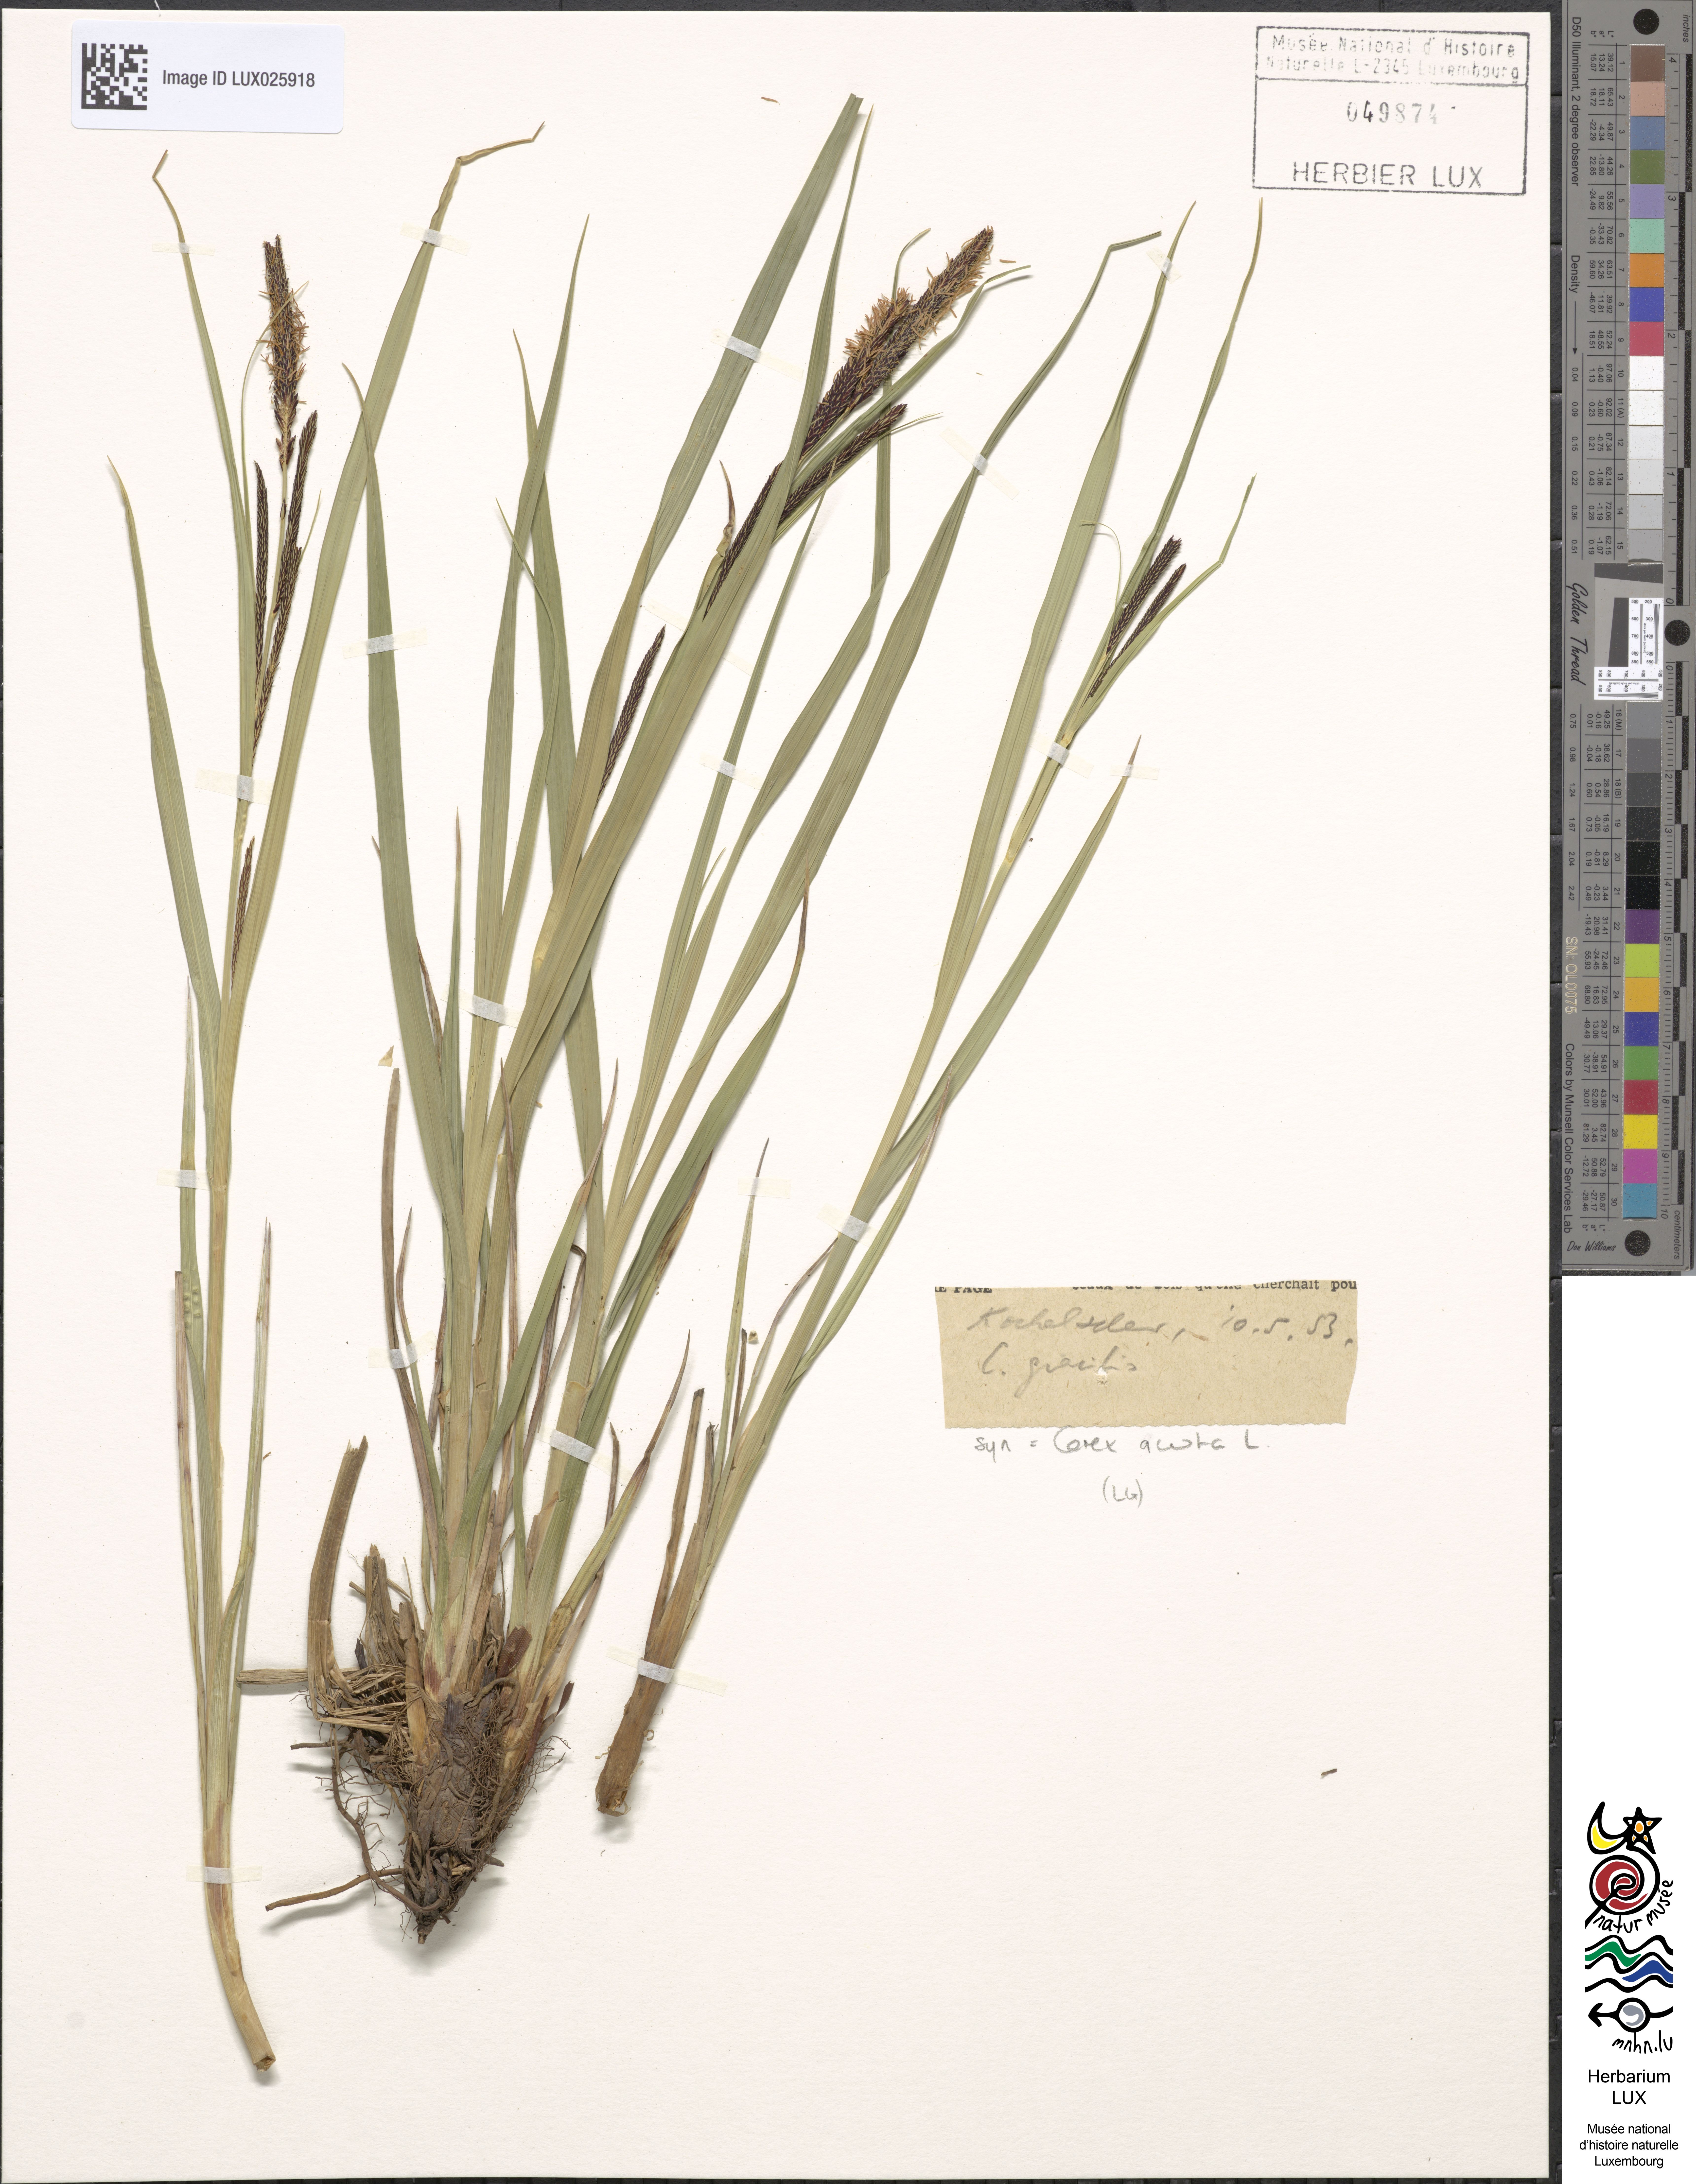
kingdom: Plantae
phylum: Tracheophyta
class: Liliopsida
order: Poales
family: Cyperaceae
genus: Carex
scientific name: Carex acuta
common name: Slender tufted-sedge
